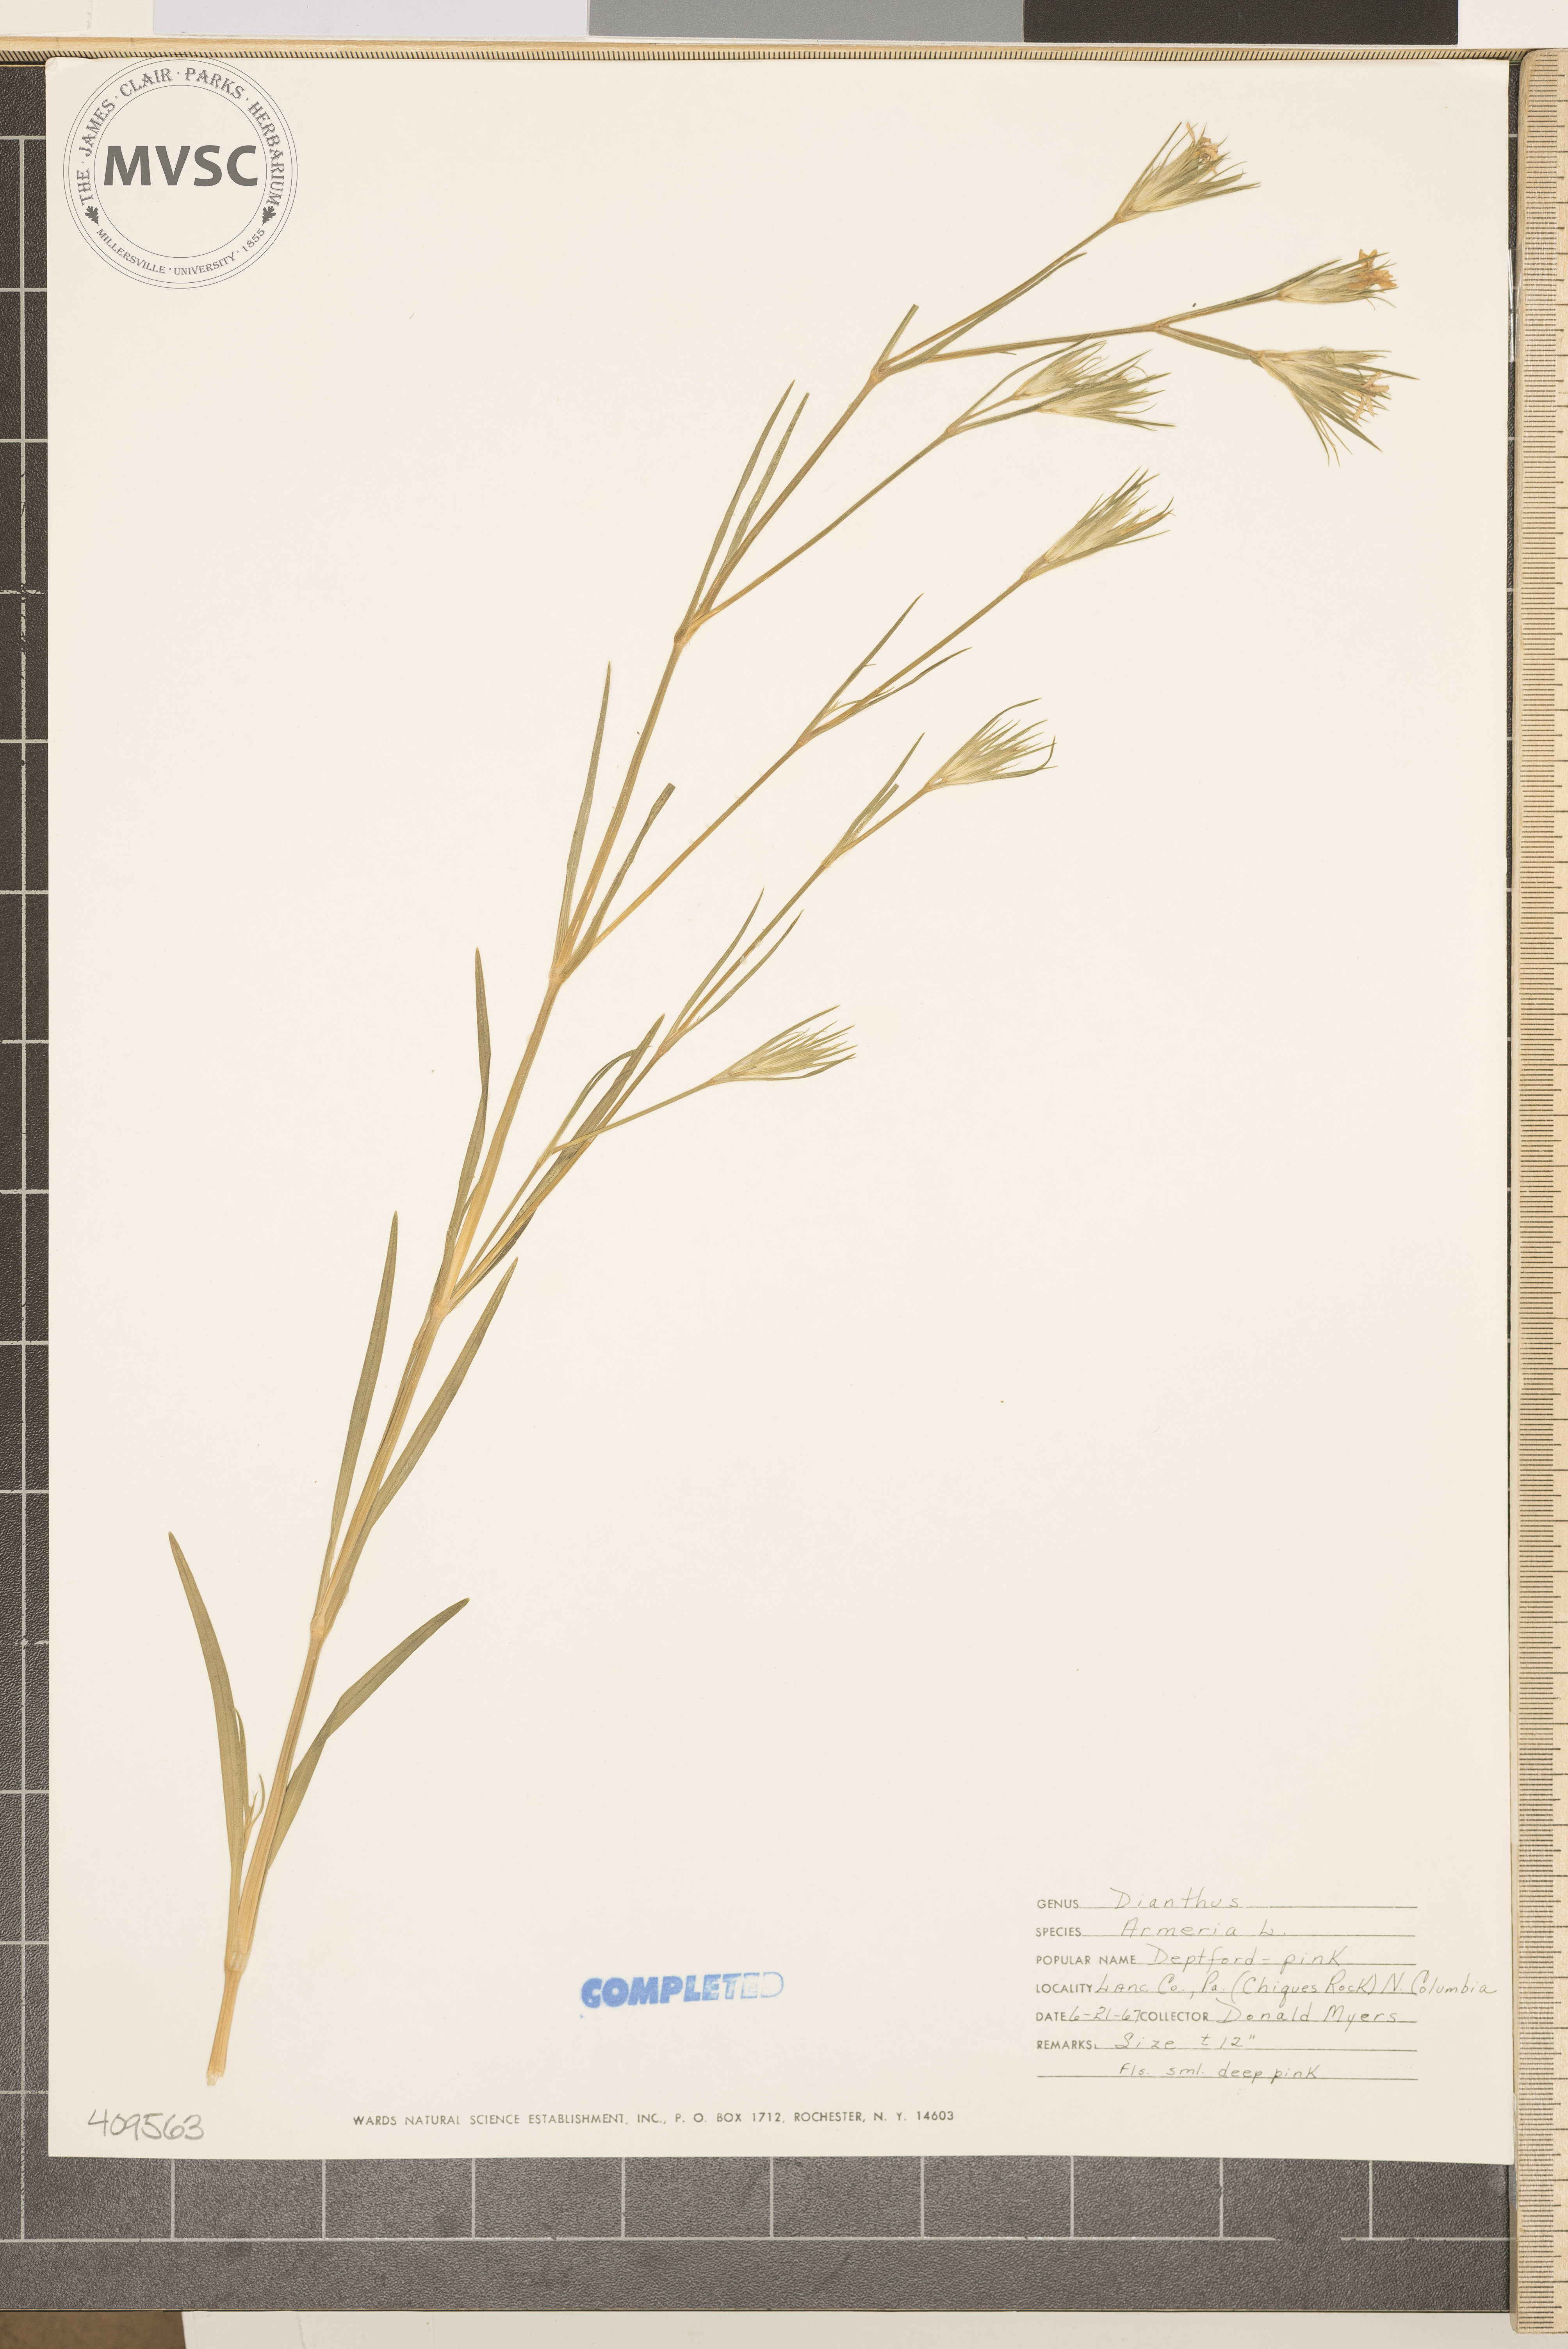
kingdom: Plantae
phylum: Tracheophyta
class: Magnoliopsida
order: Caryophyllales
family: Caryophyllaceae
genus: Dianthus
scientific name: Dianthus armeria
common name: Deptford pink
